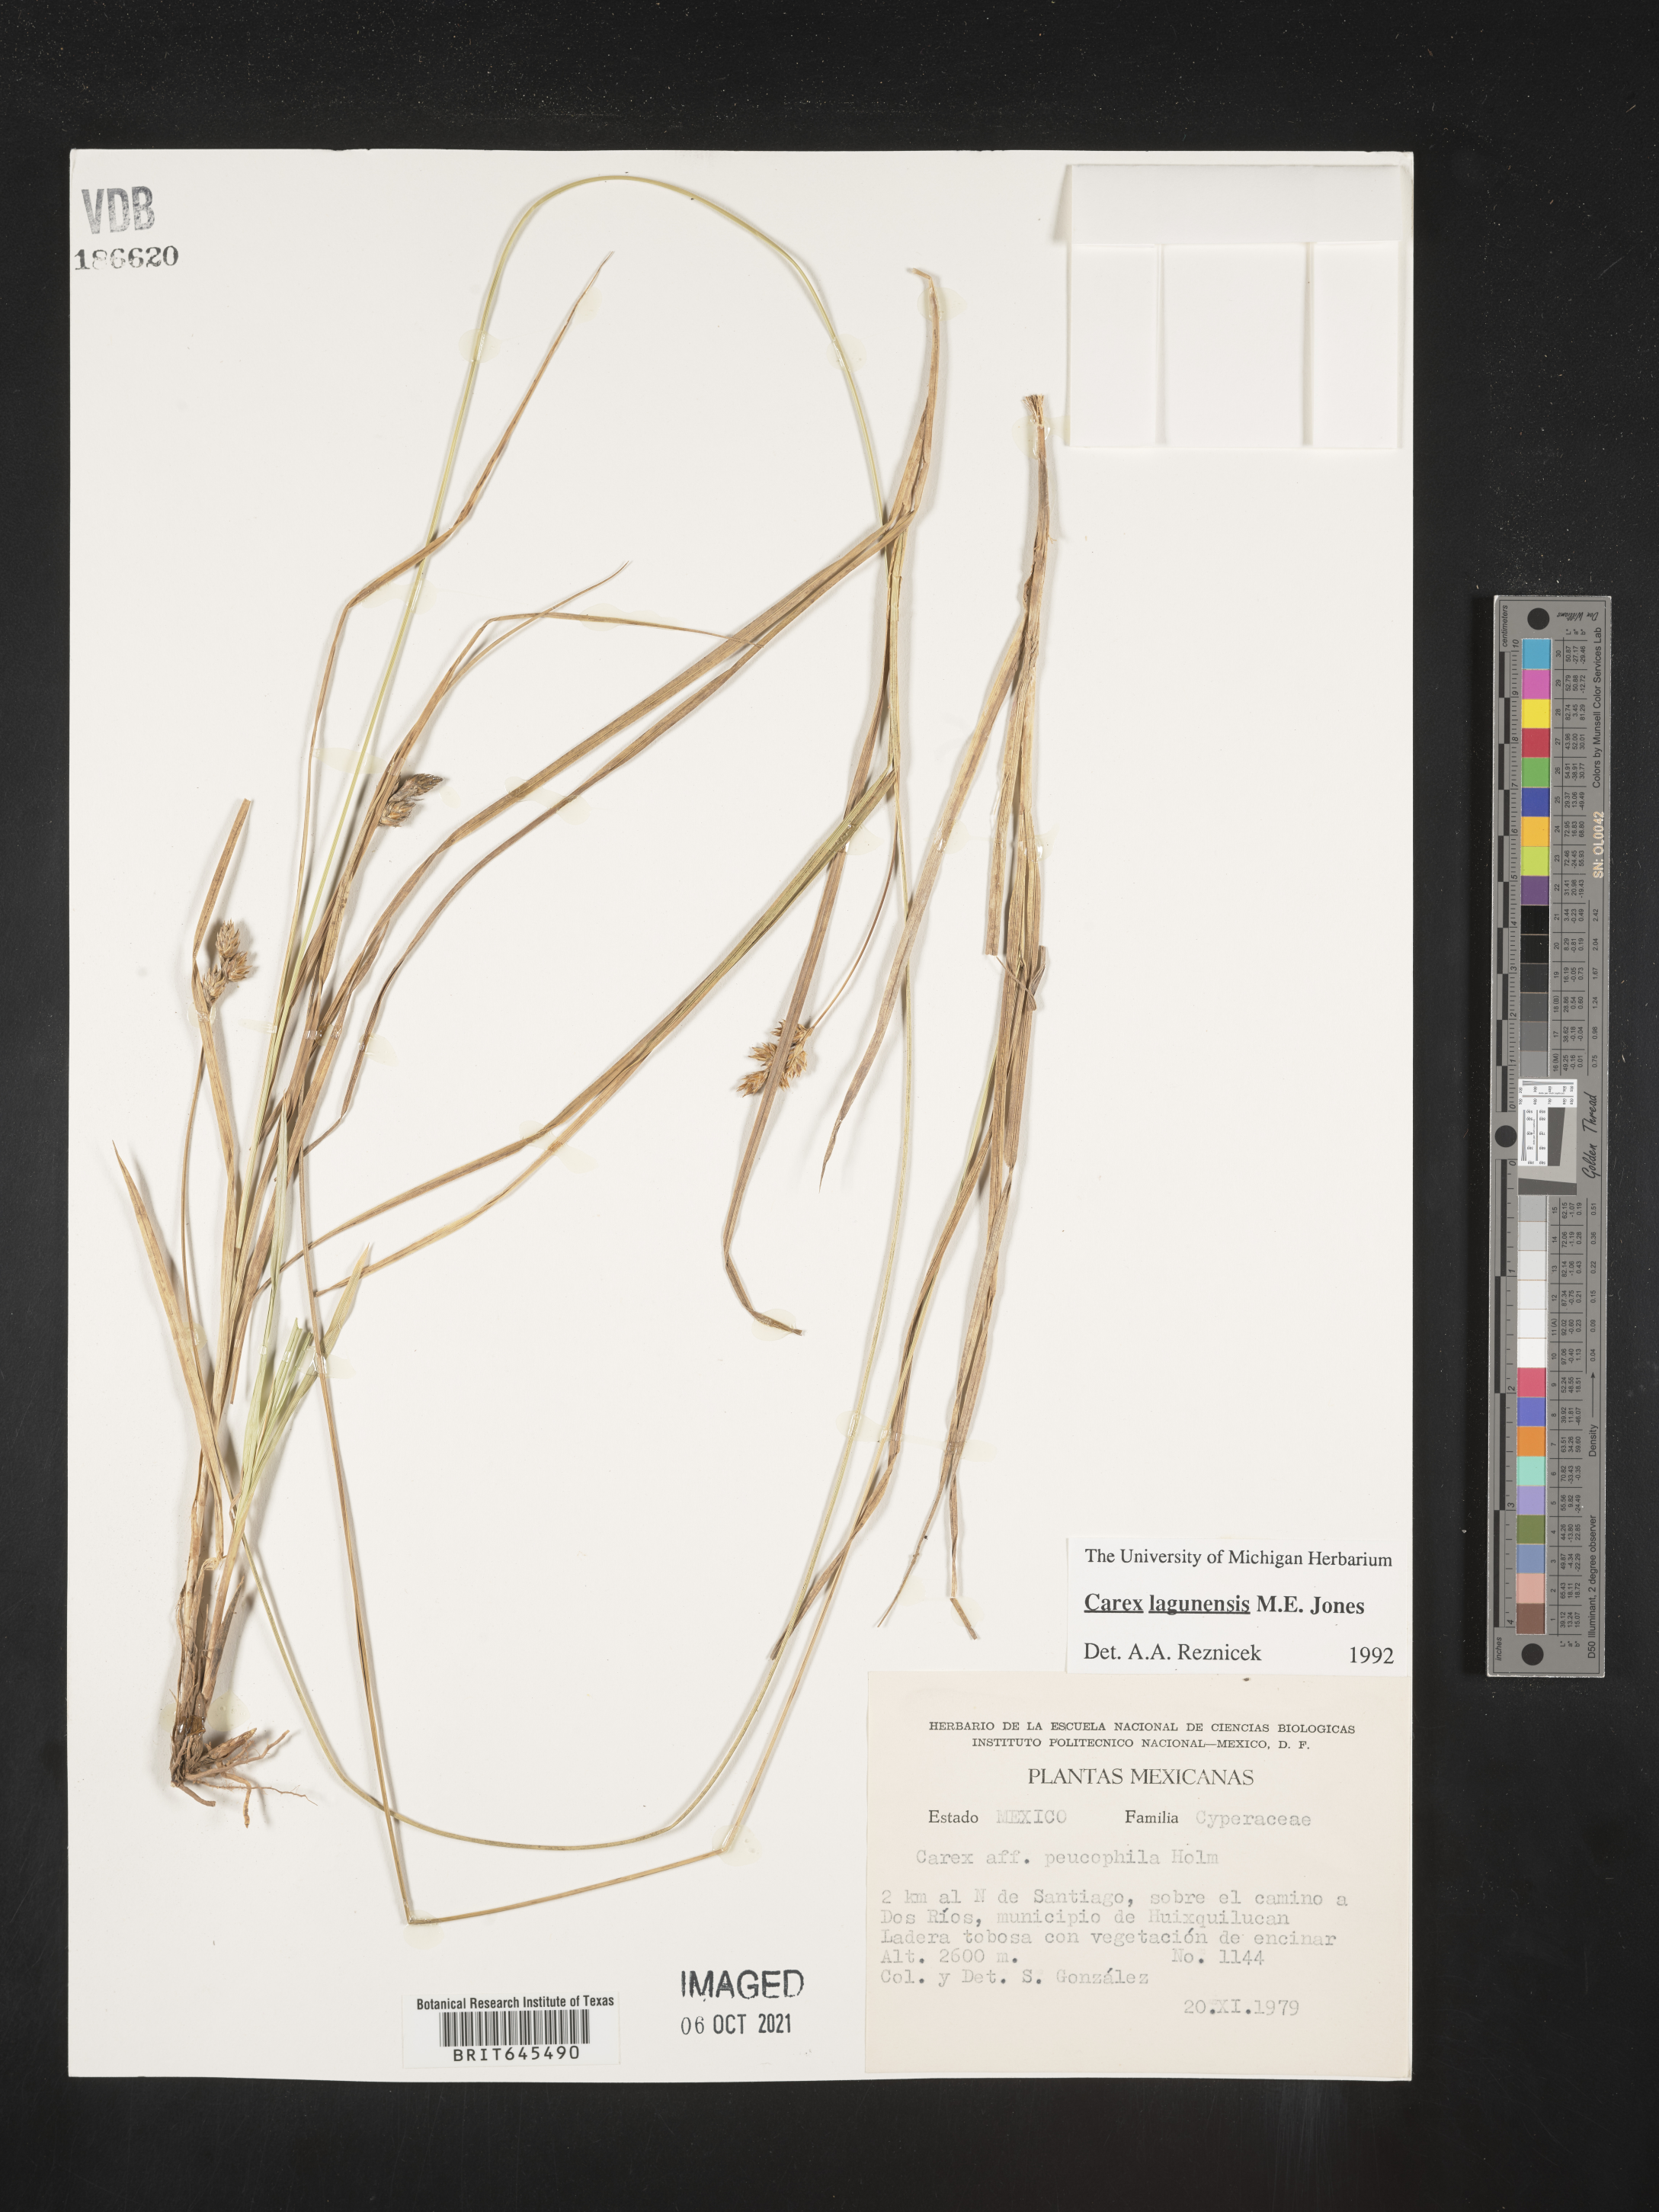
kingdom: Plantae
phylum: Tracheophyta
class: Liliopsida
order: Poales
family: Cyperaceae
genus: Carex
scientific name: Carex
